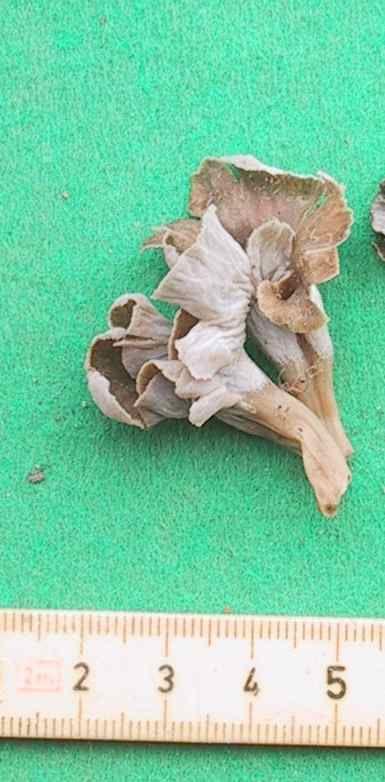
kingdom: Fungi
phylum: Basidiomycota
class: Agaricomycetes
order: Cantharellales
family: Hydnaceae
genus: Craterellus
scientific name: Craterellus undulatus
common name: liden kantarel
